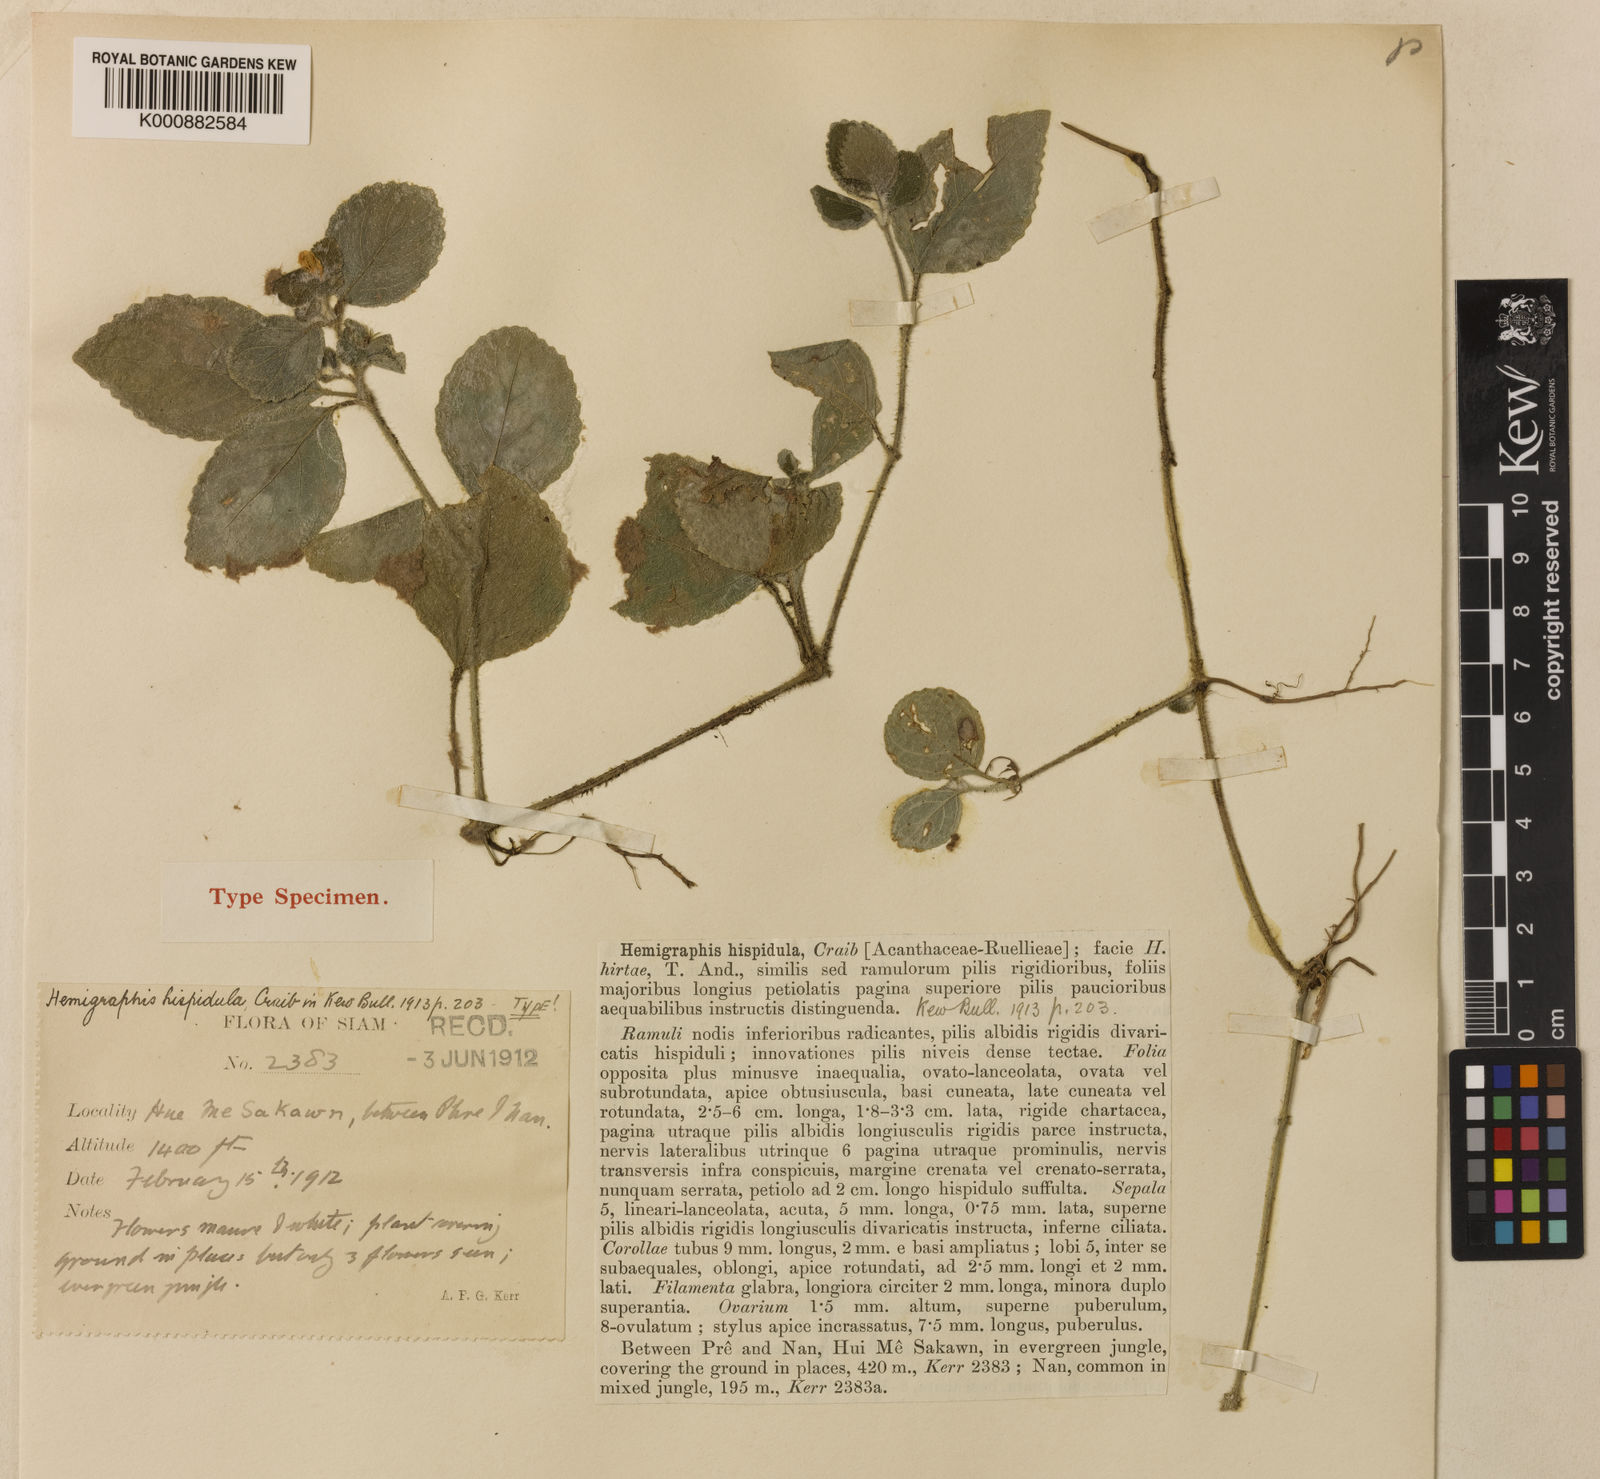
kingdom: Plantae
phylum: Tracheophyta
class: Magnoliopsida
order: Lamiales
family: Acanthaceae
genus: Strobilanthes
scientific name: Strobilanthes serpens
